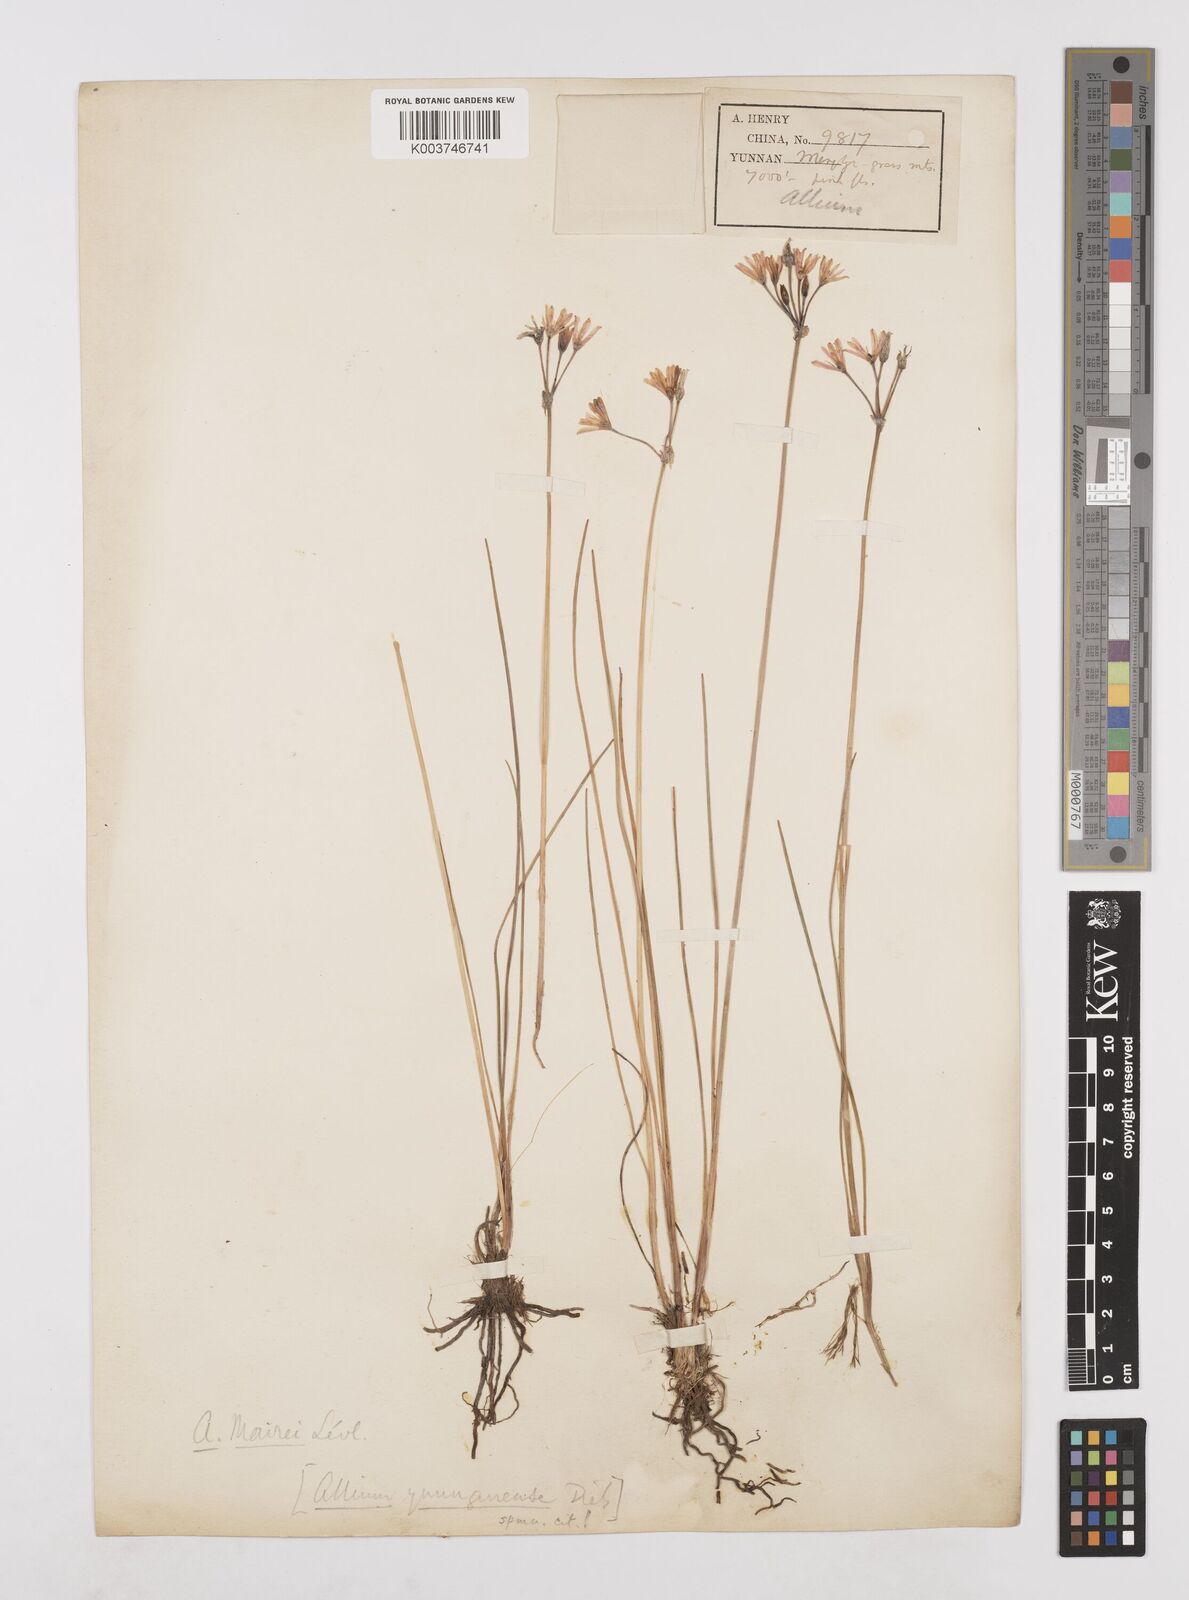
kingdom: Plantae
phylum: Tracheophyta
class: Liliopsida
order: Asparagales
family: Amaryllidaceae
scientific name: Amaryllidaceae
